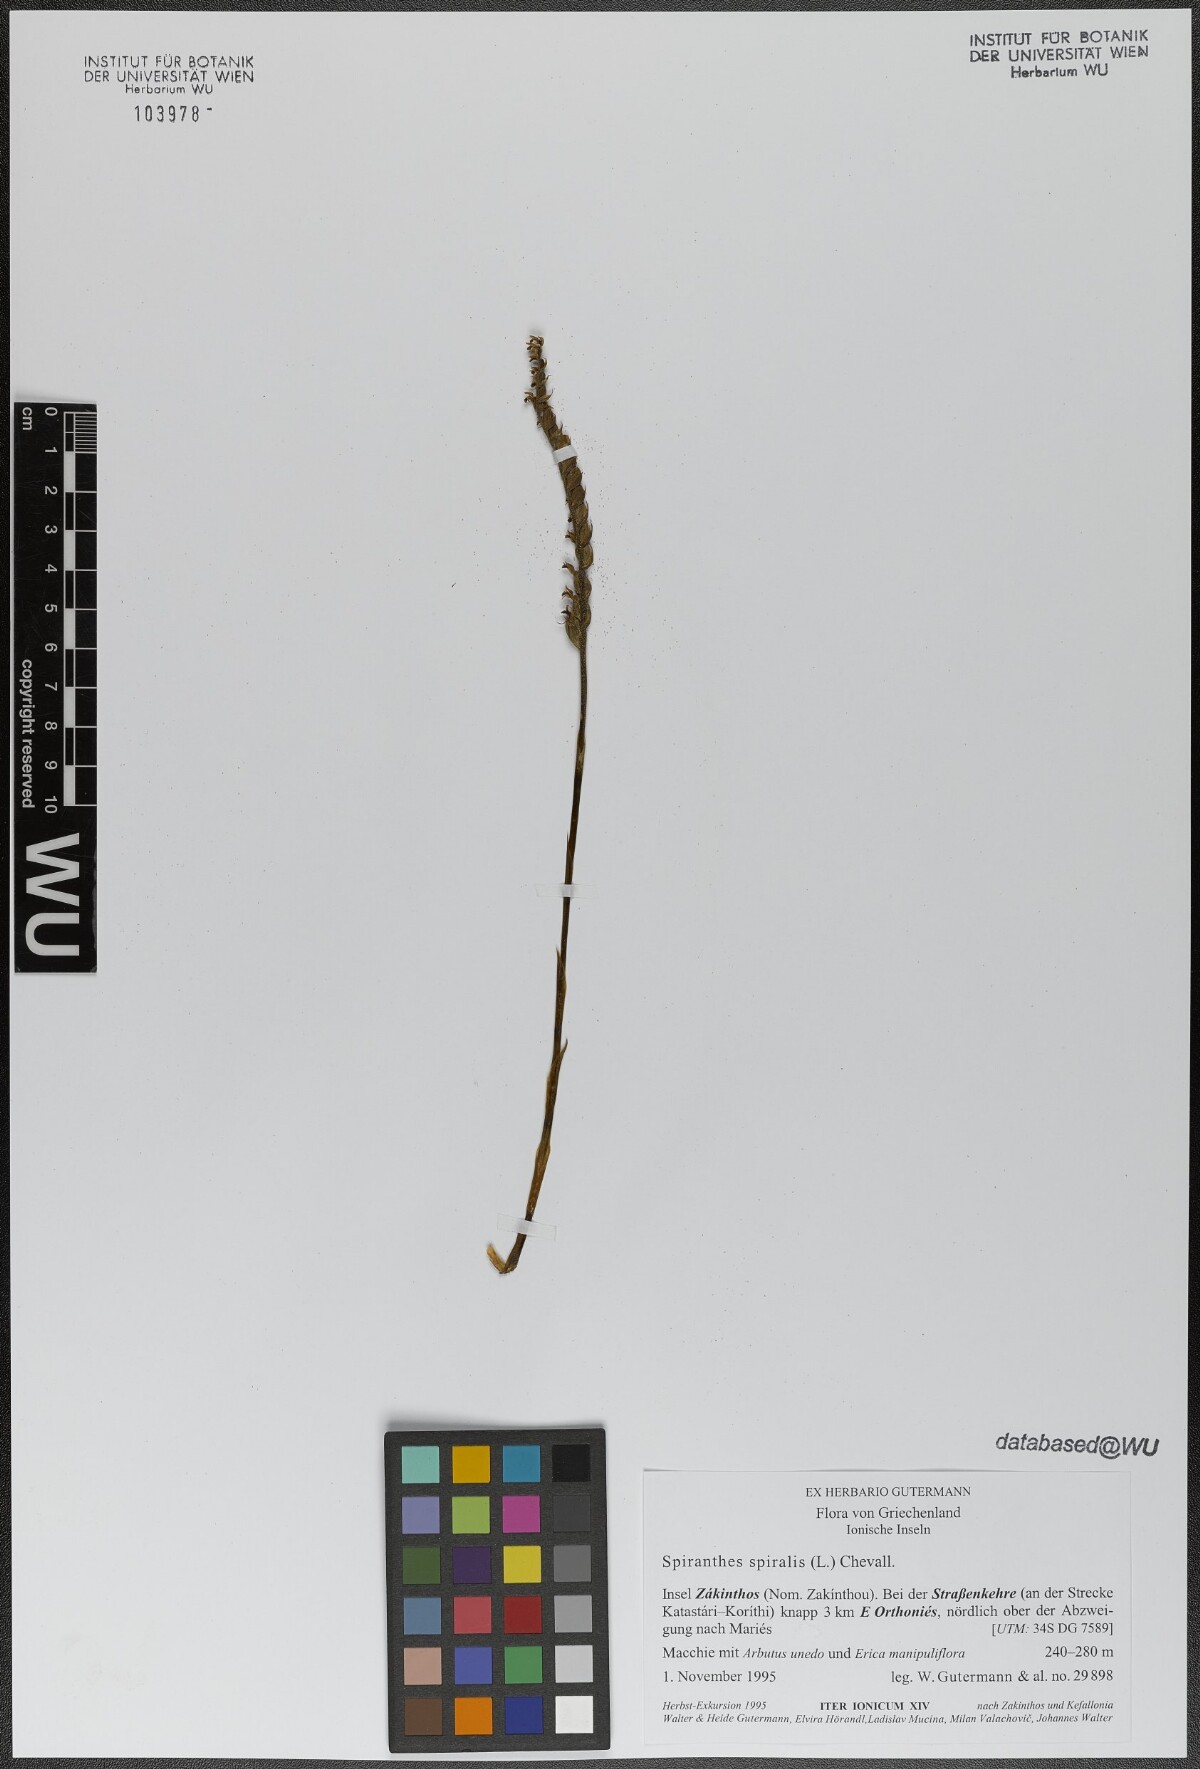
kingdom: Plantae
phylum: Tracheophyta
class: Liliopsida
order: Asparagales
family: Orchidaceae
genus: Spiranthes
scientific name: Spiranthes spiralis
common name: Autumn lady's-tresses
